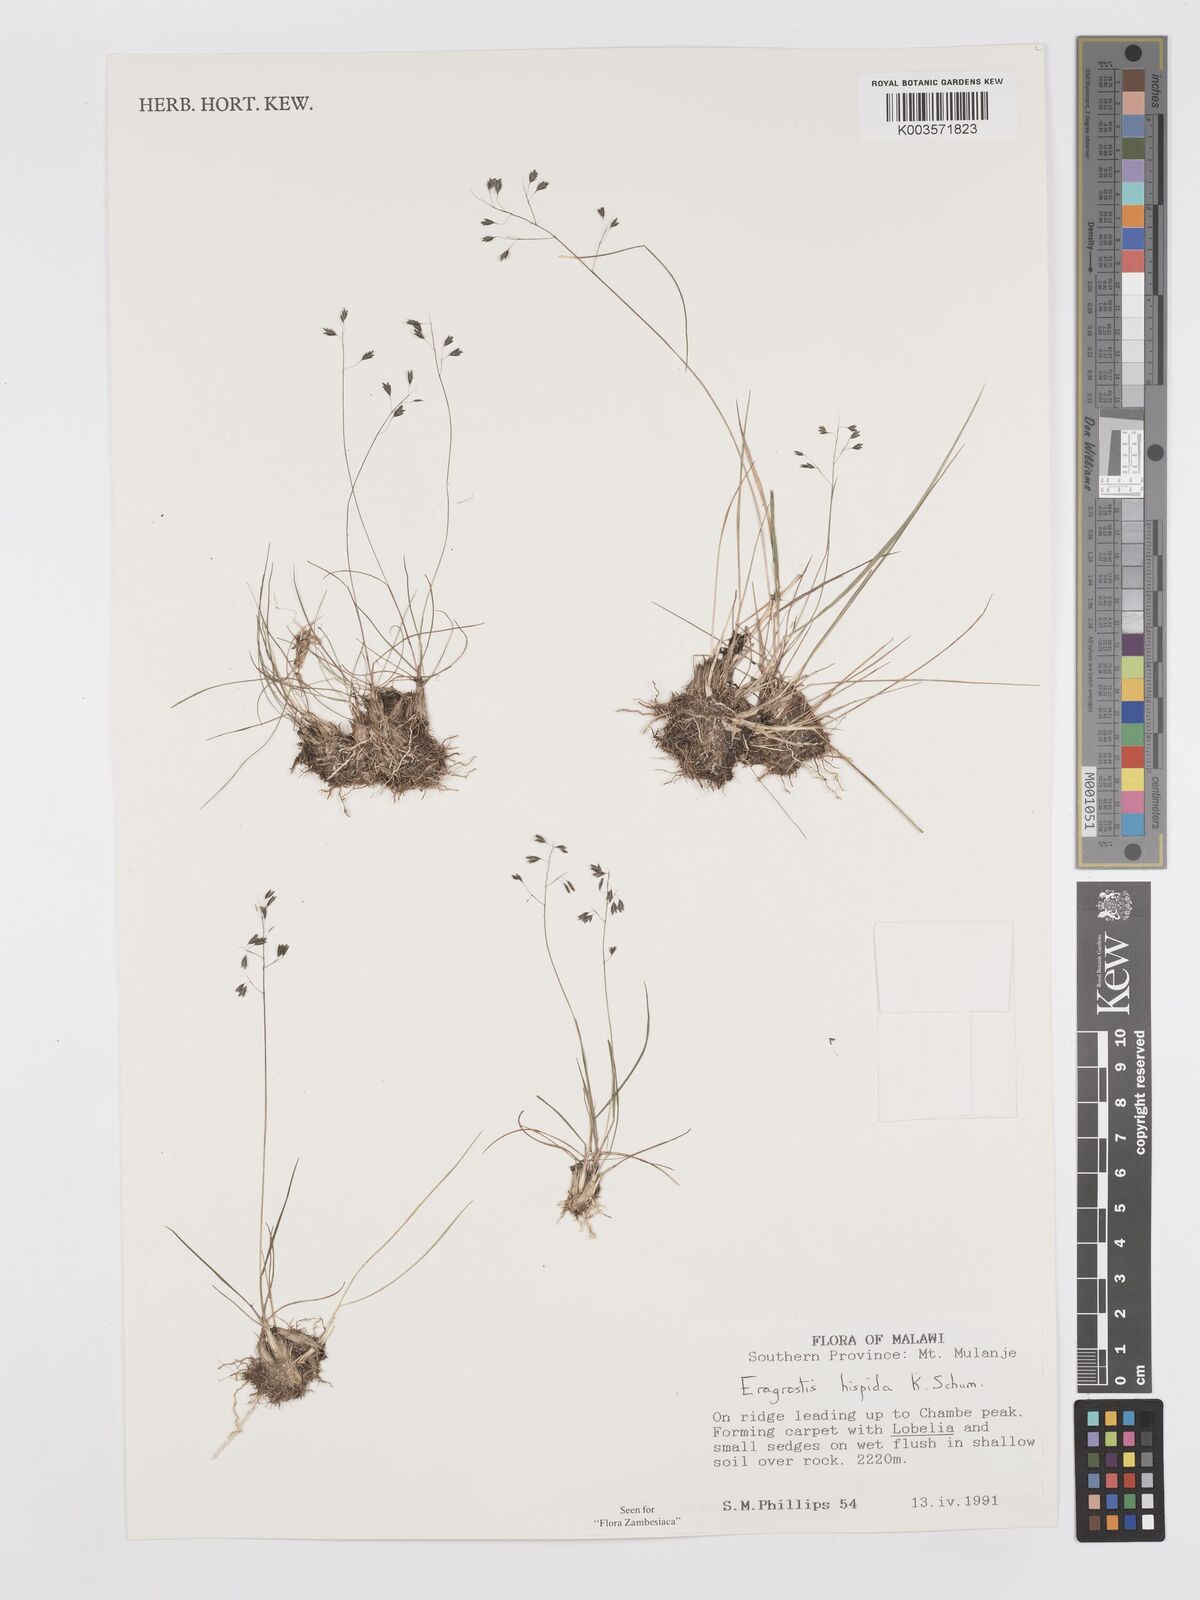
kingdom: Plantae
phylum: Tracheophyta
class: Liliopsida
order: Poales
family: Poaceae
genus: Eragrostis
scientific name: Eragrostis hispida
